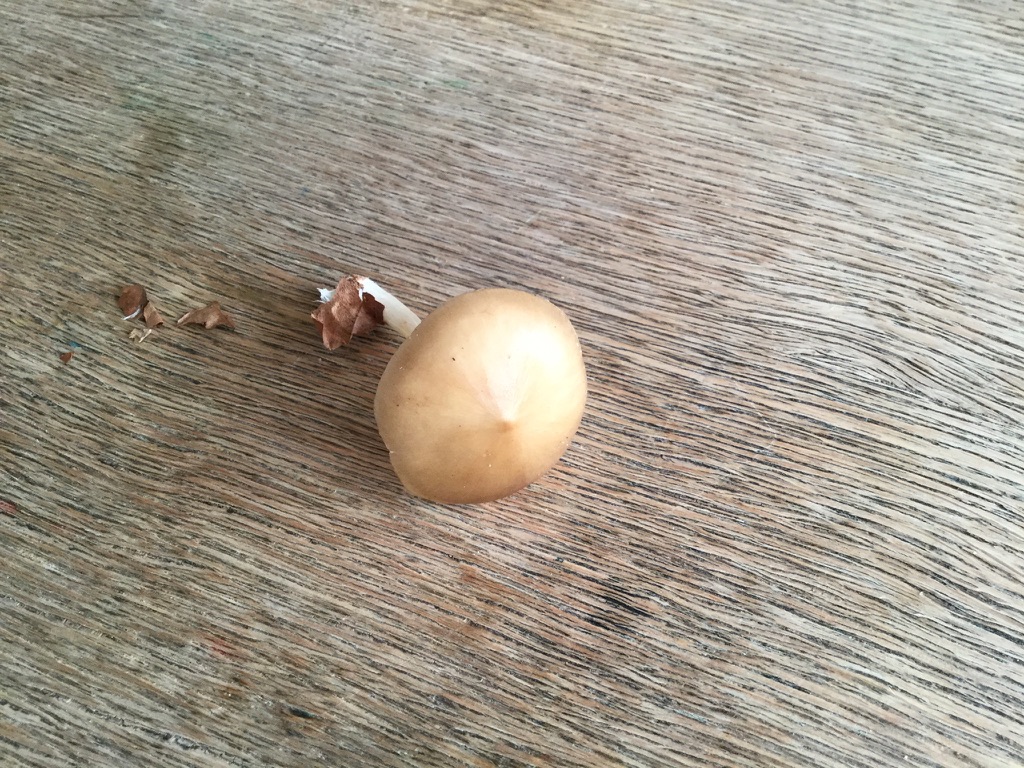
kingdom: Fungi
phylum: Basidiomycota
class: Agaricomycetes
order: Agaricales
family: Porotheleaceae
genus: Hydropodia
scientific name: Hydropodia subalpina
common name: vår-fnugfod
